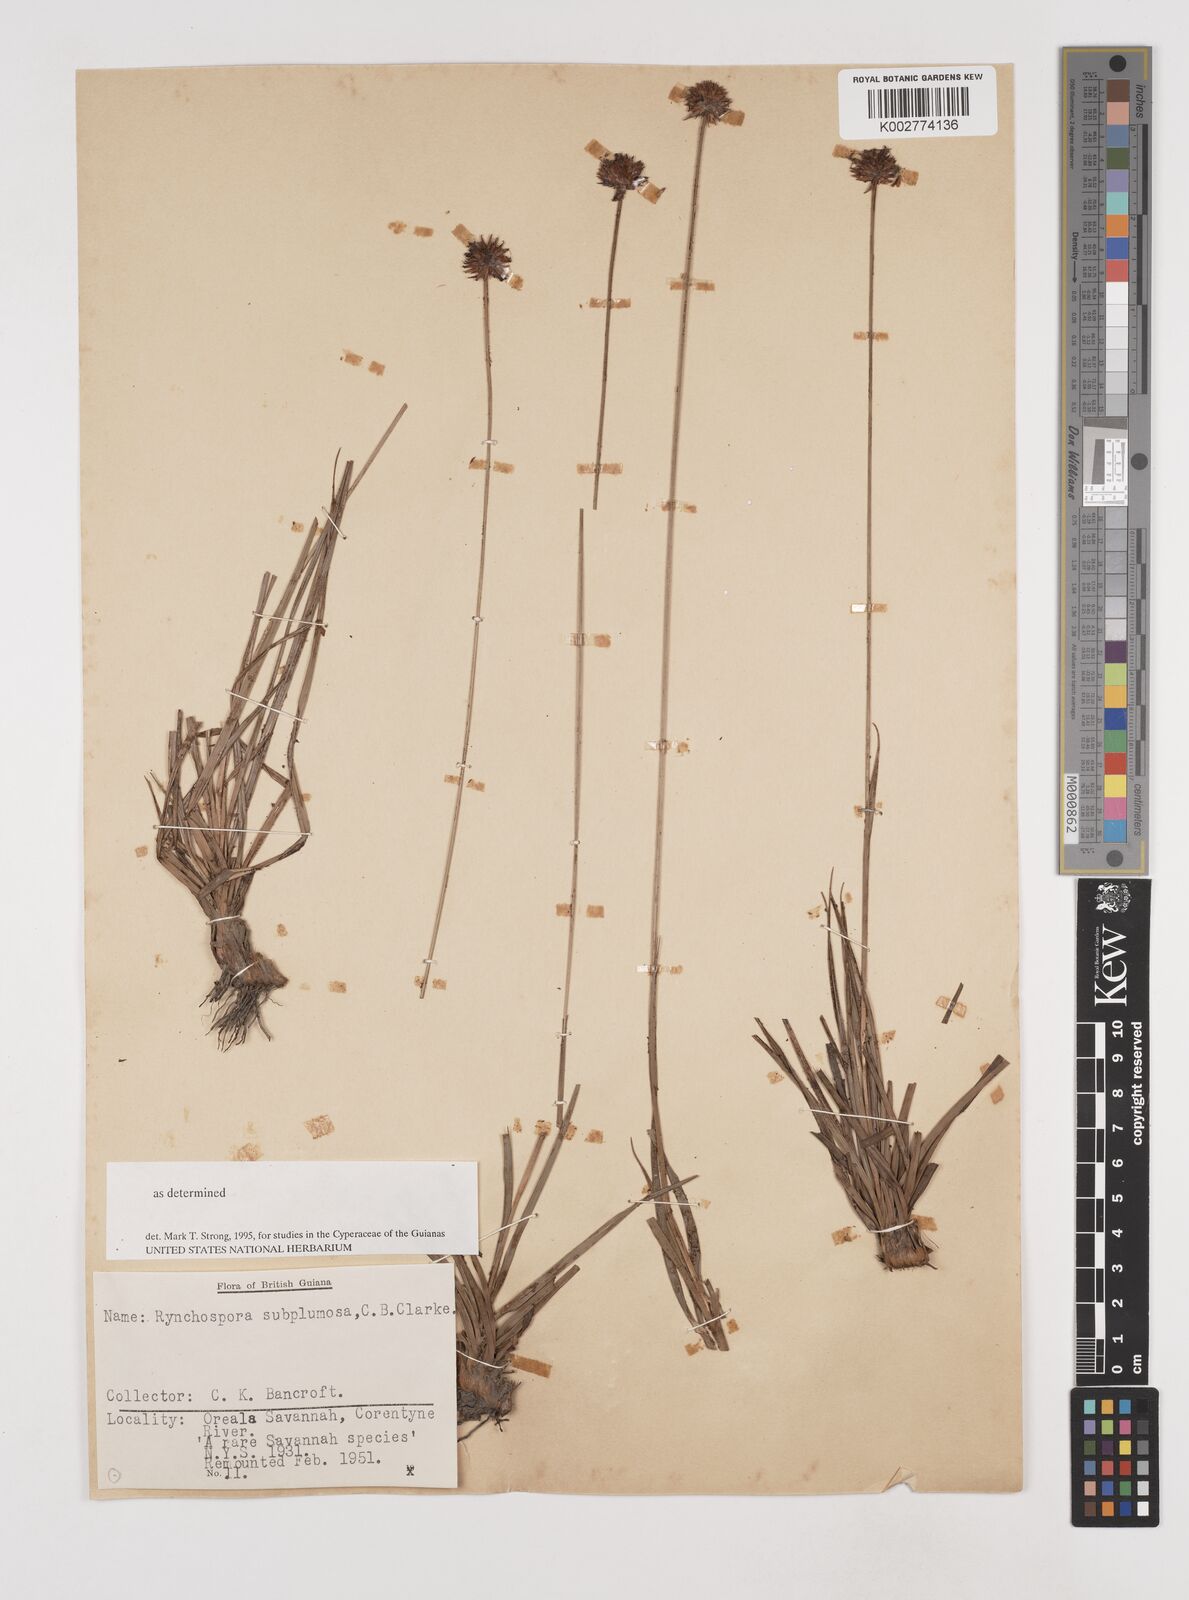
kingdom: Plantae
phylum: Tracheophyta
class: Liliopsida
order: Poales
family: Cyperaceae
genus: Rhynchospora
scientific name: Rhynchospora subplumosa
